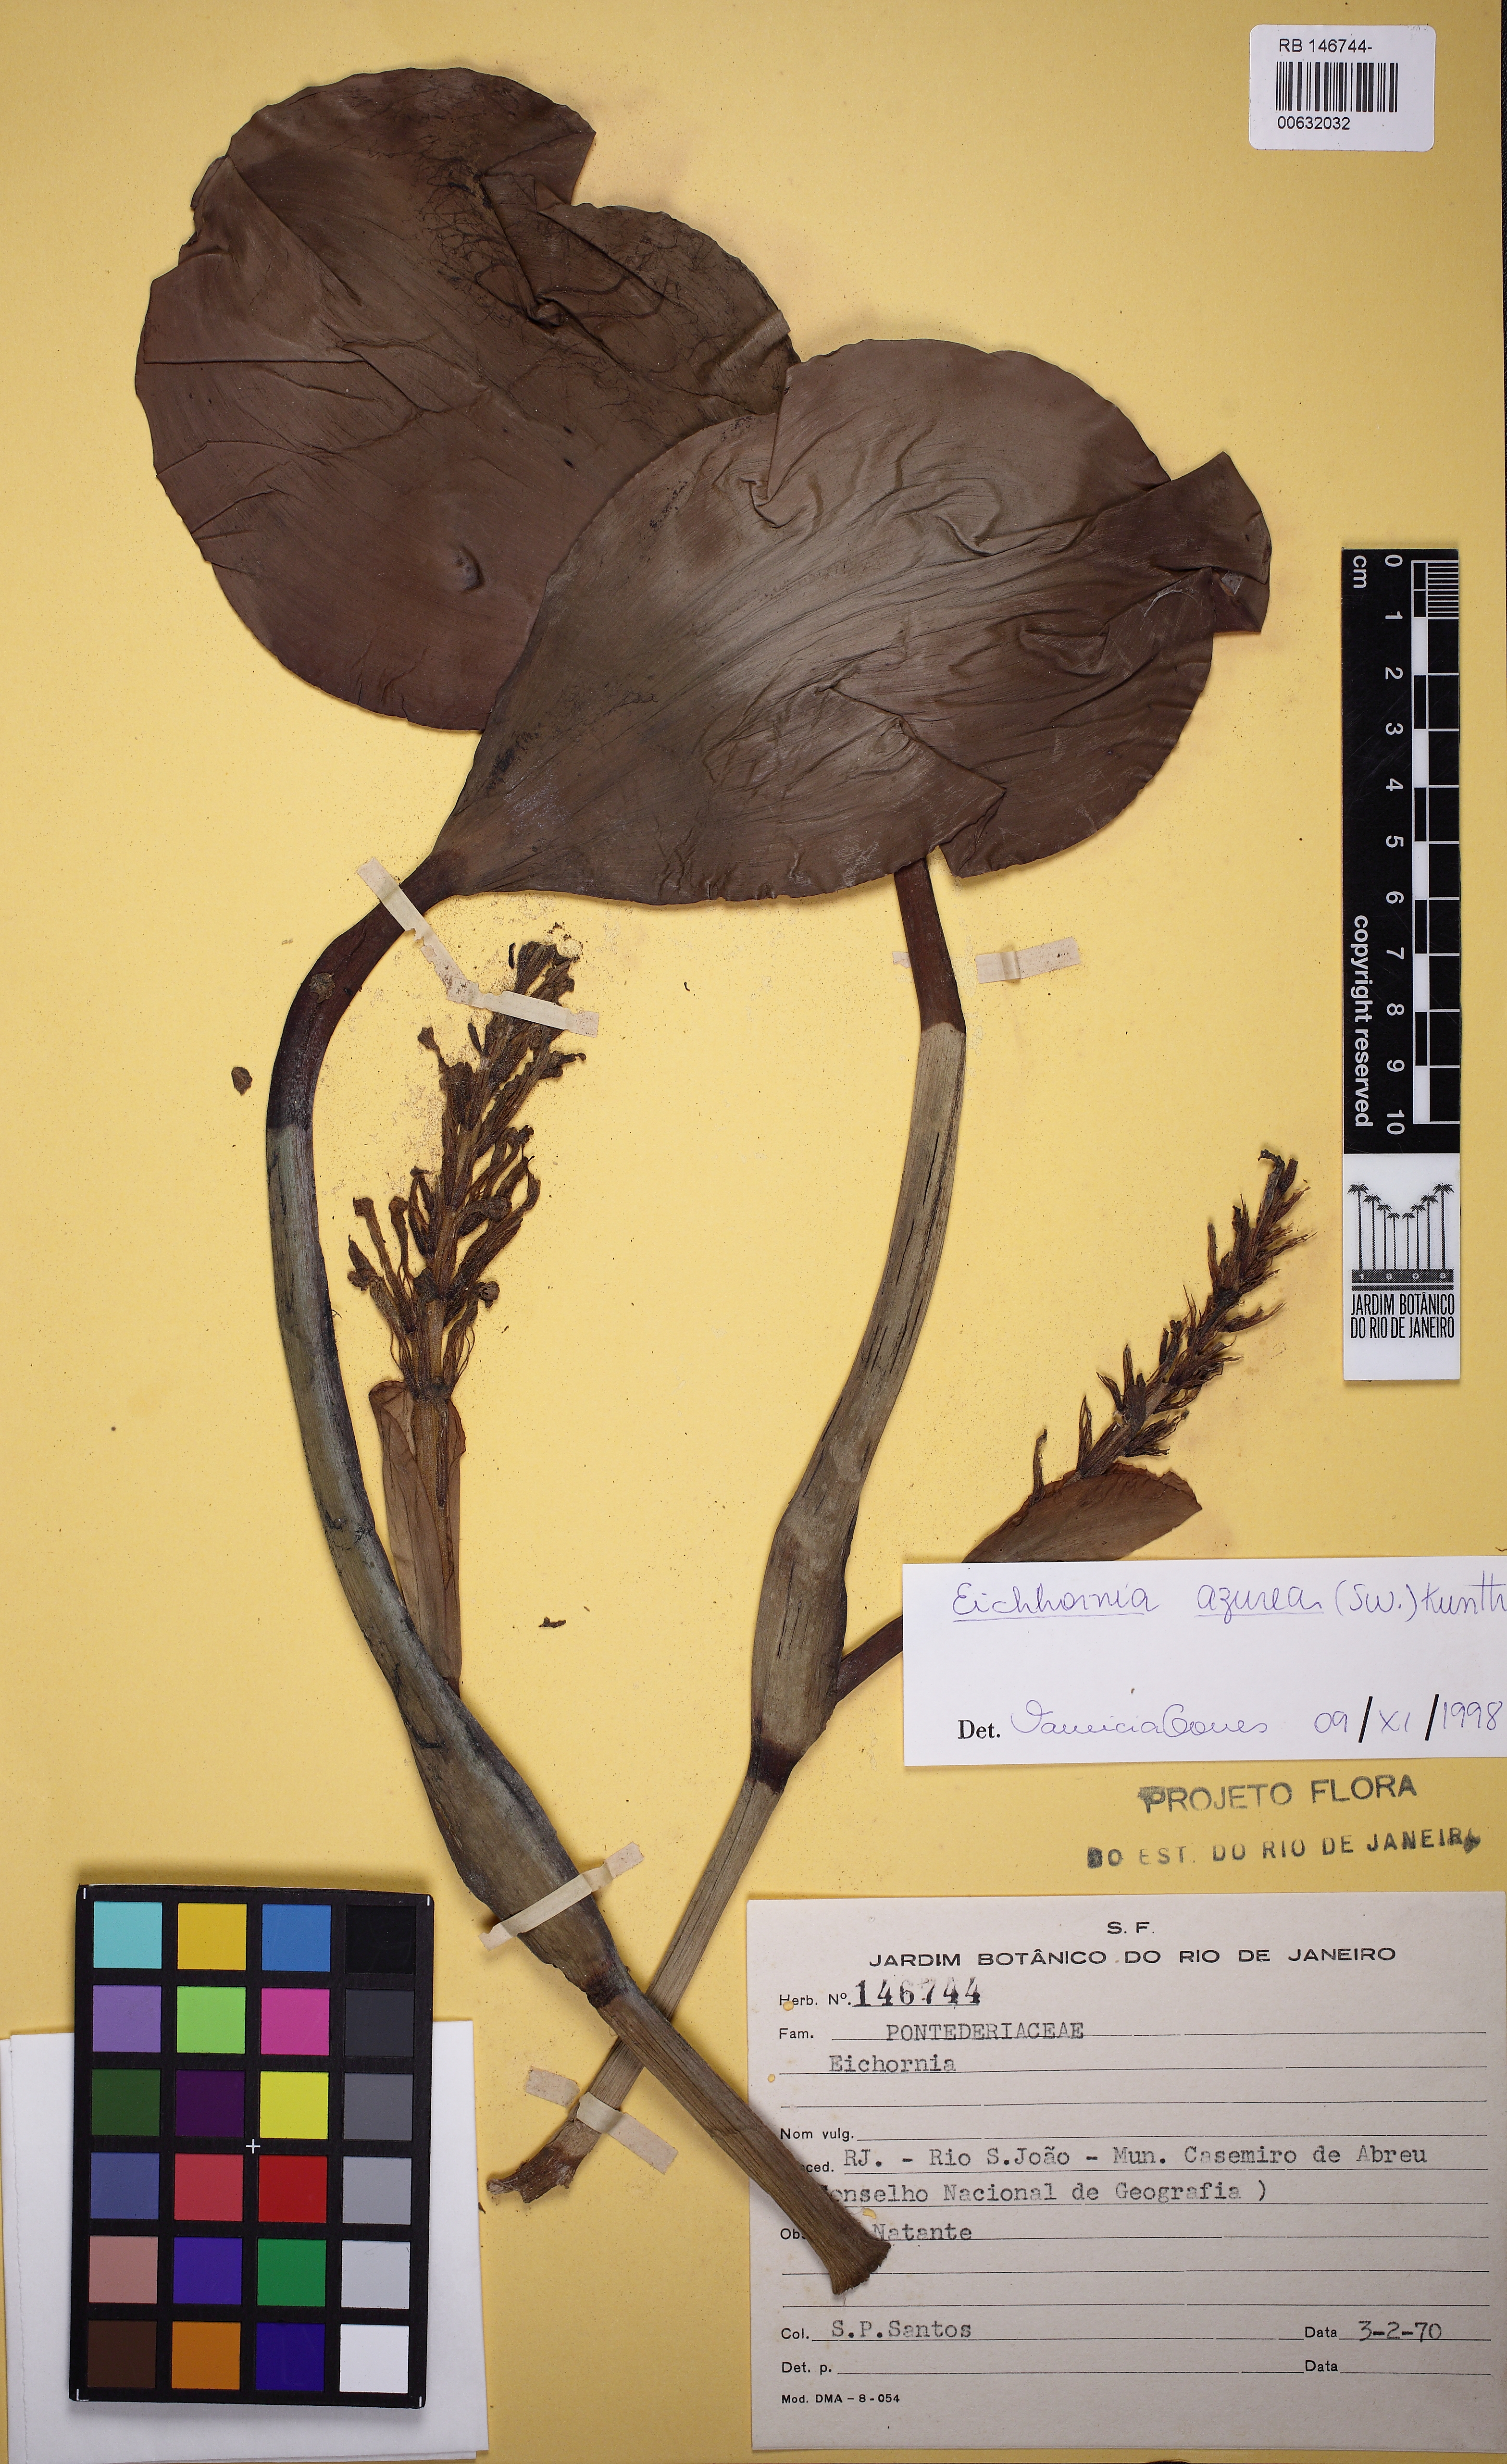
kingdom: Plantae
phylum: Tracheophyta
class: Liliopsida
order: Commelinales
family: Pontederiaceae
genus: Pontederia
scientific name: Pontederia azurea
